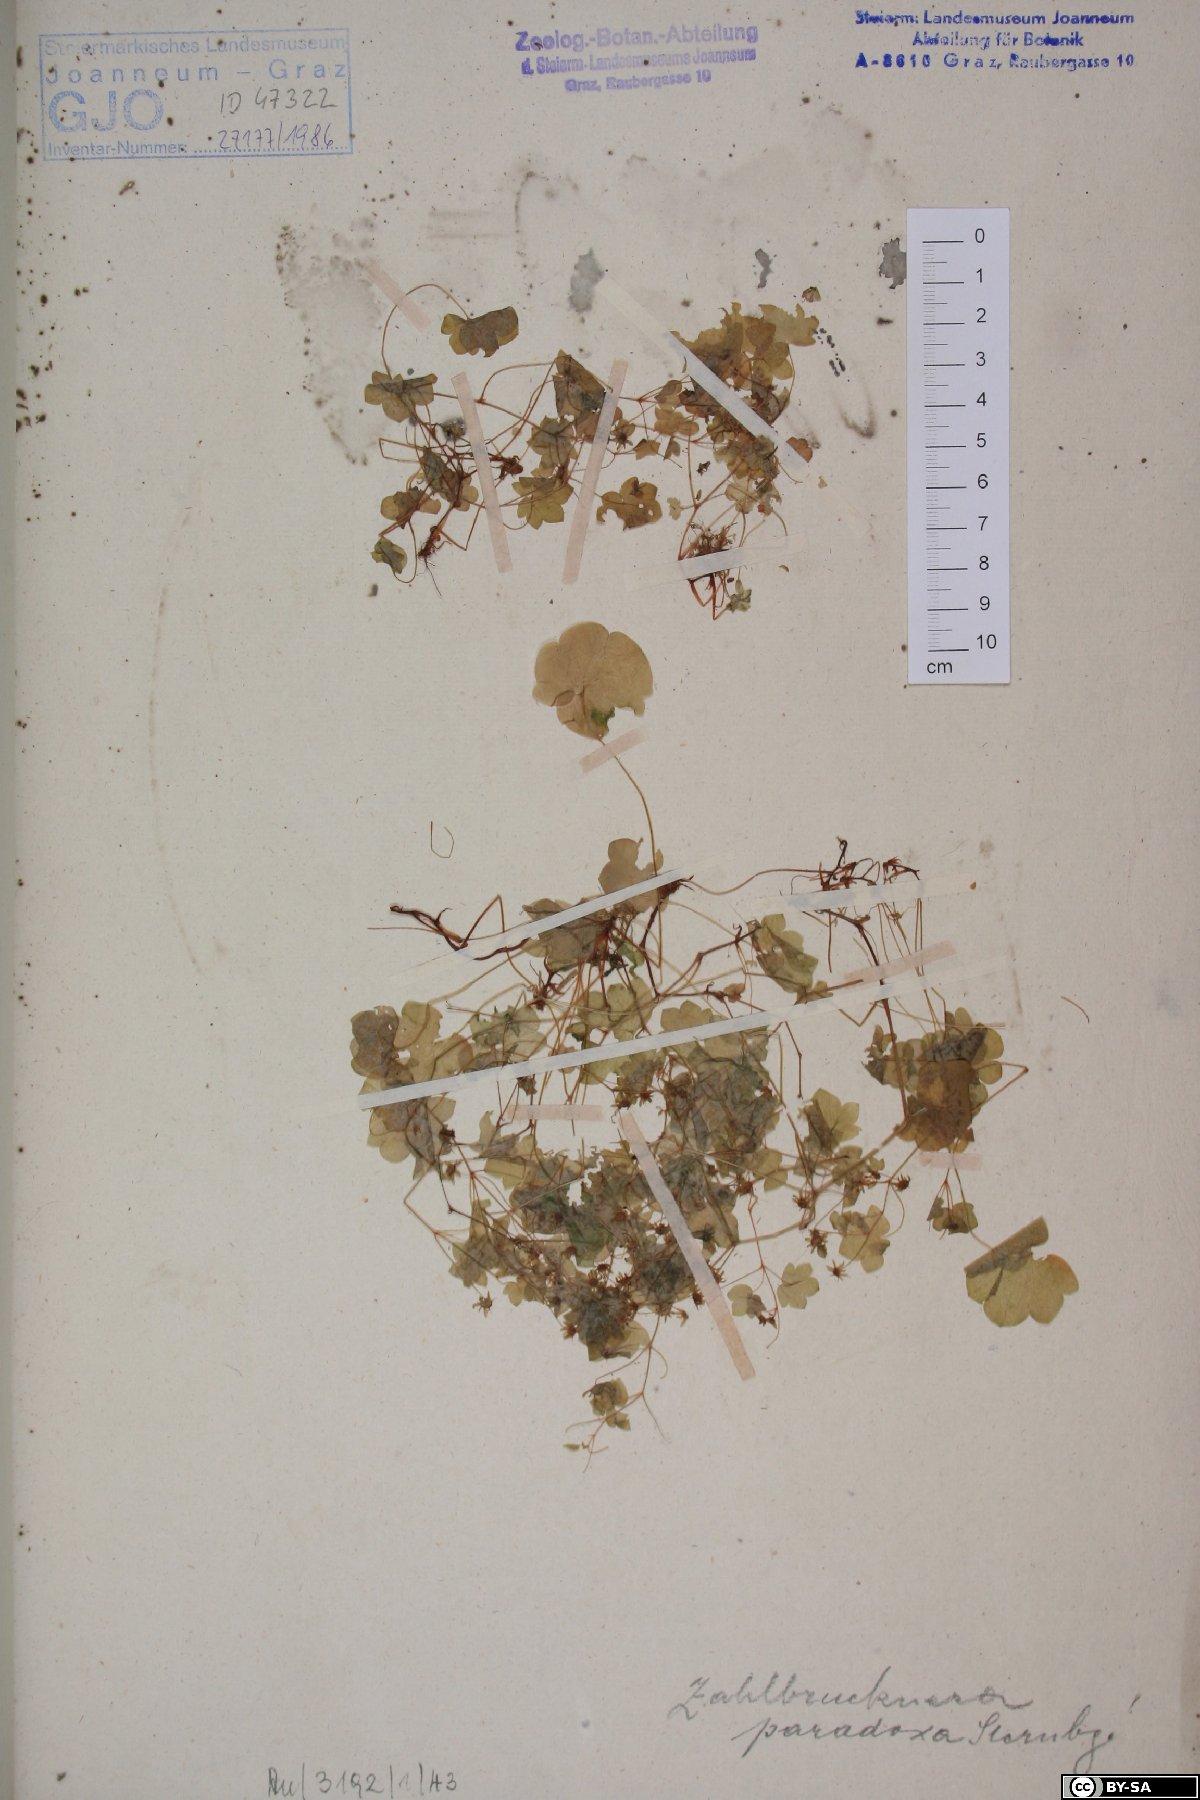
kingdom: Plantae
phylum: Tracheophyta
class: Magnoliopsida
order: Saxifragales
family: Saxifragaceae
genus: Saxifraga
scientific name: Saxifraga paradoxa
